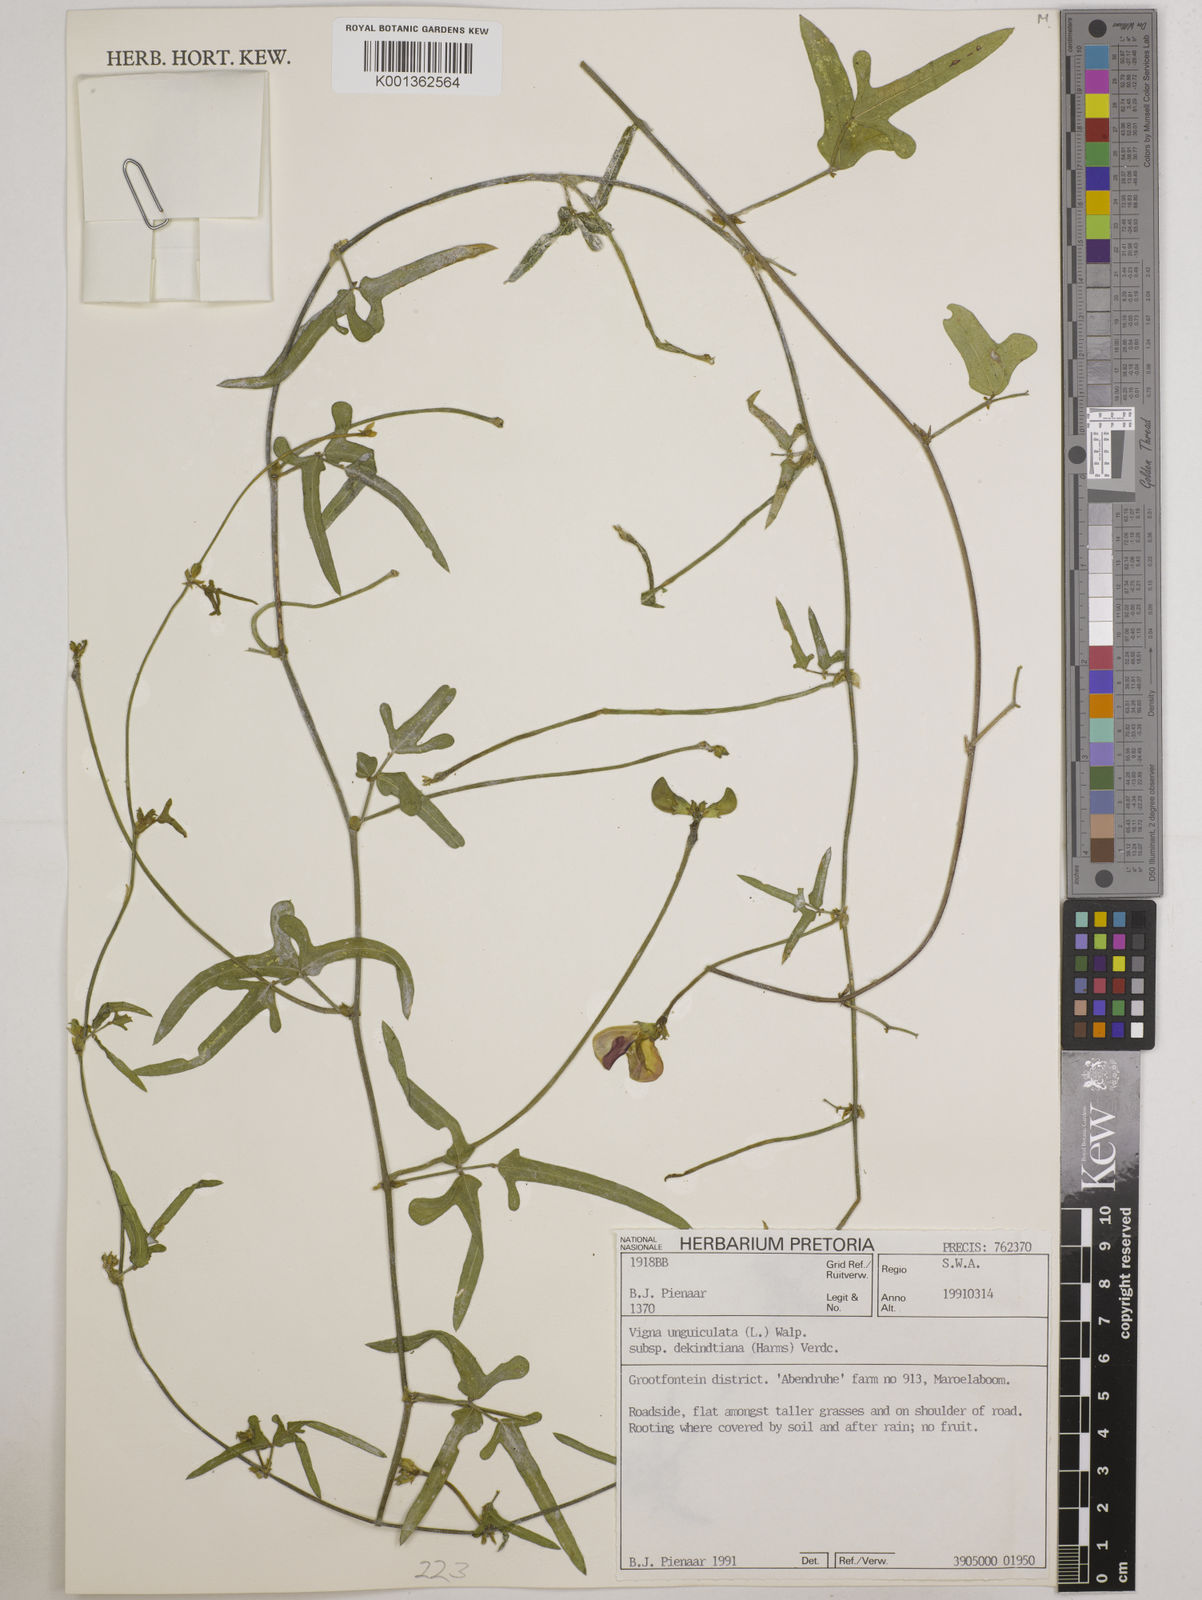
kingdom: Plantae
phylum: Tracheophyta
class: Magnoliopsida
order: Fabales
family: Fabaceae
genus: Vigna
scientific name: Vigna unguiculata
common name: Cowpea
